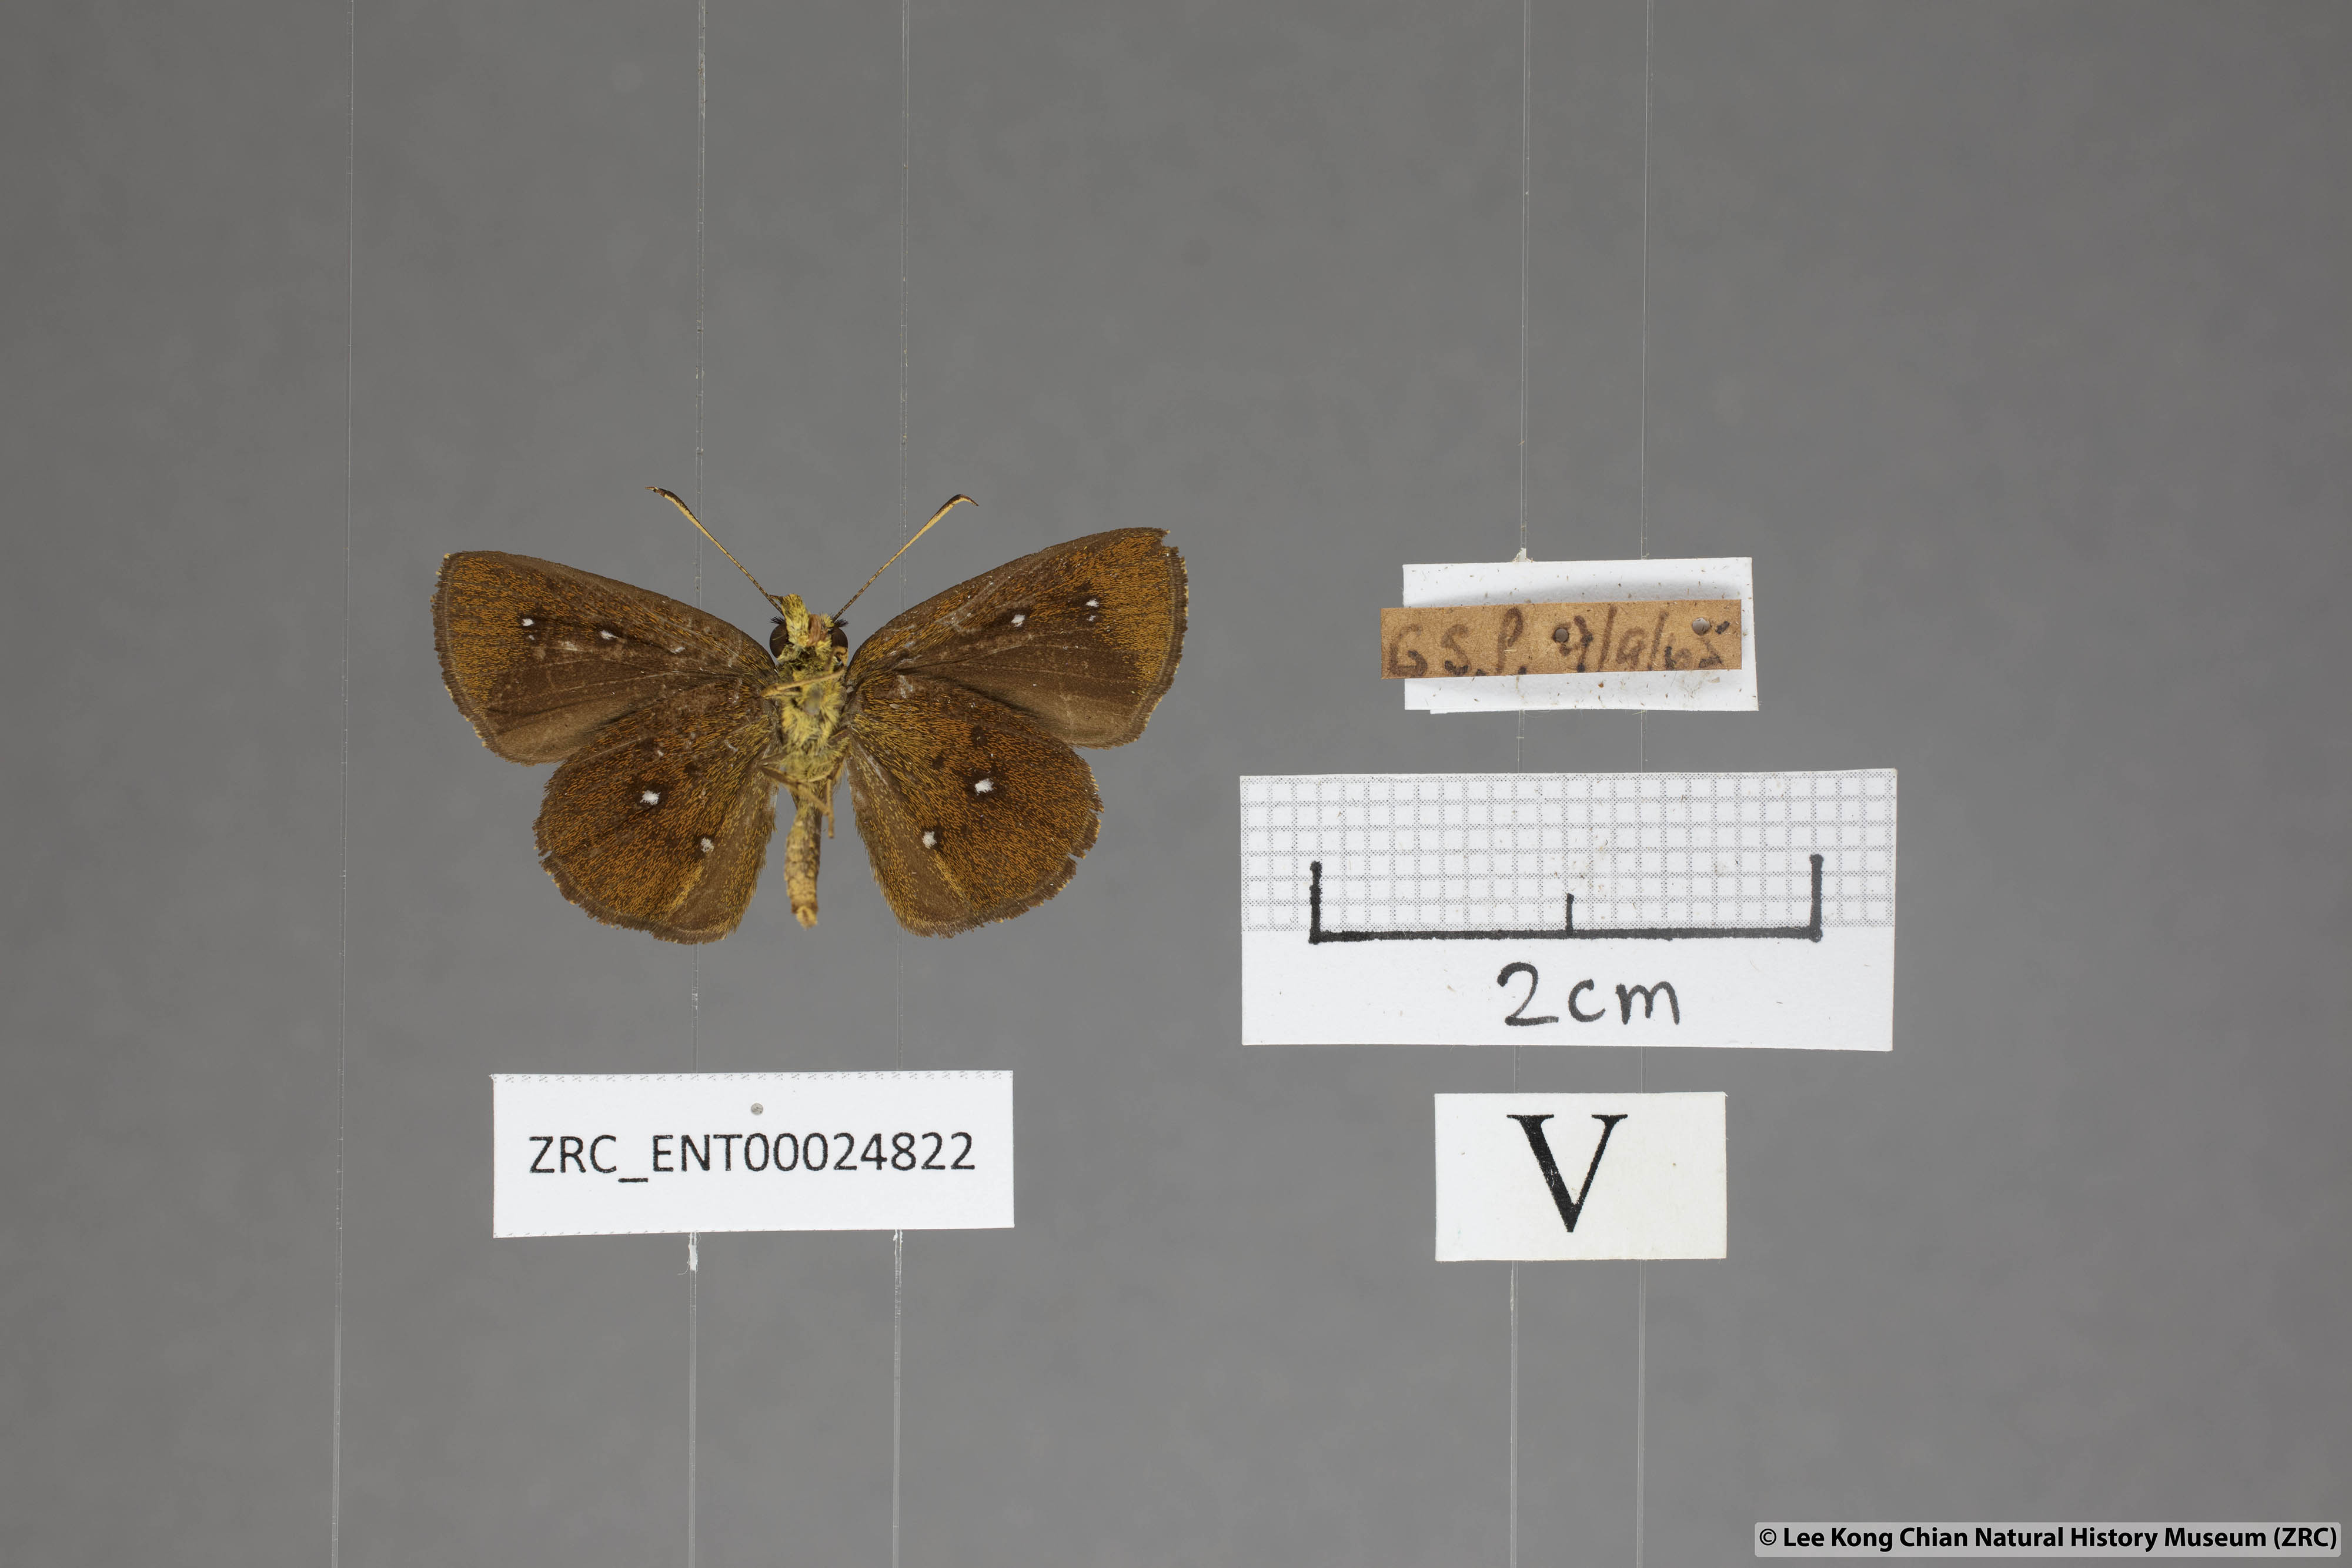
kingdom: Animalia
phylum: Arthropoda
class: Insecta
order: Lepidoptera
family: Hesperiidae
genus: Iambrix
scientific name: Iambrix salsala
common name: Chestnut bob
